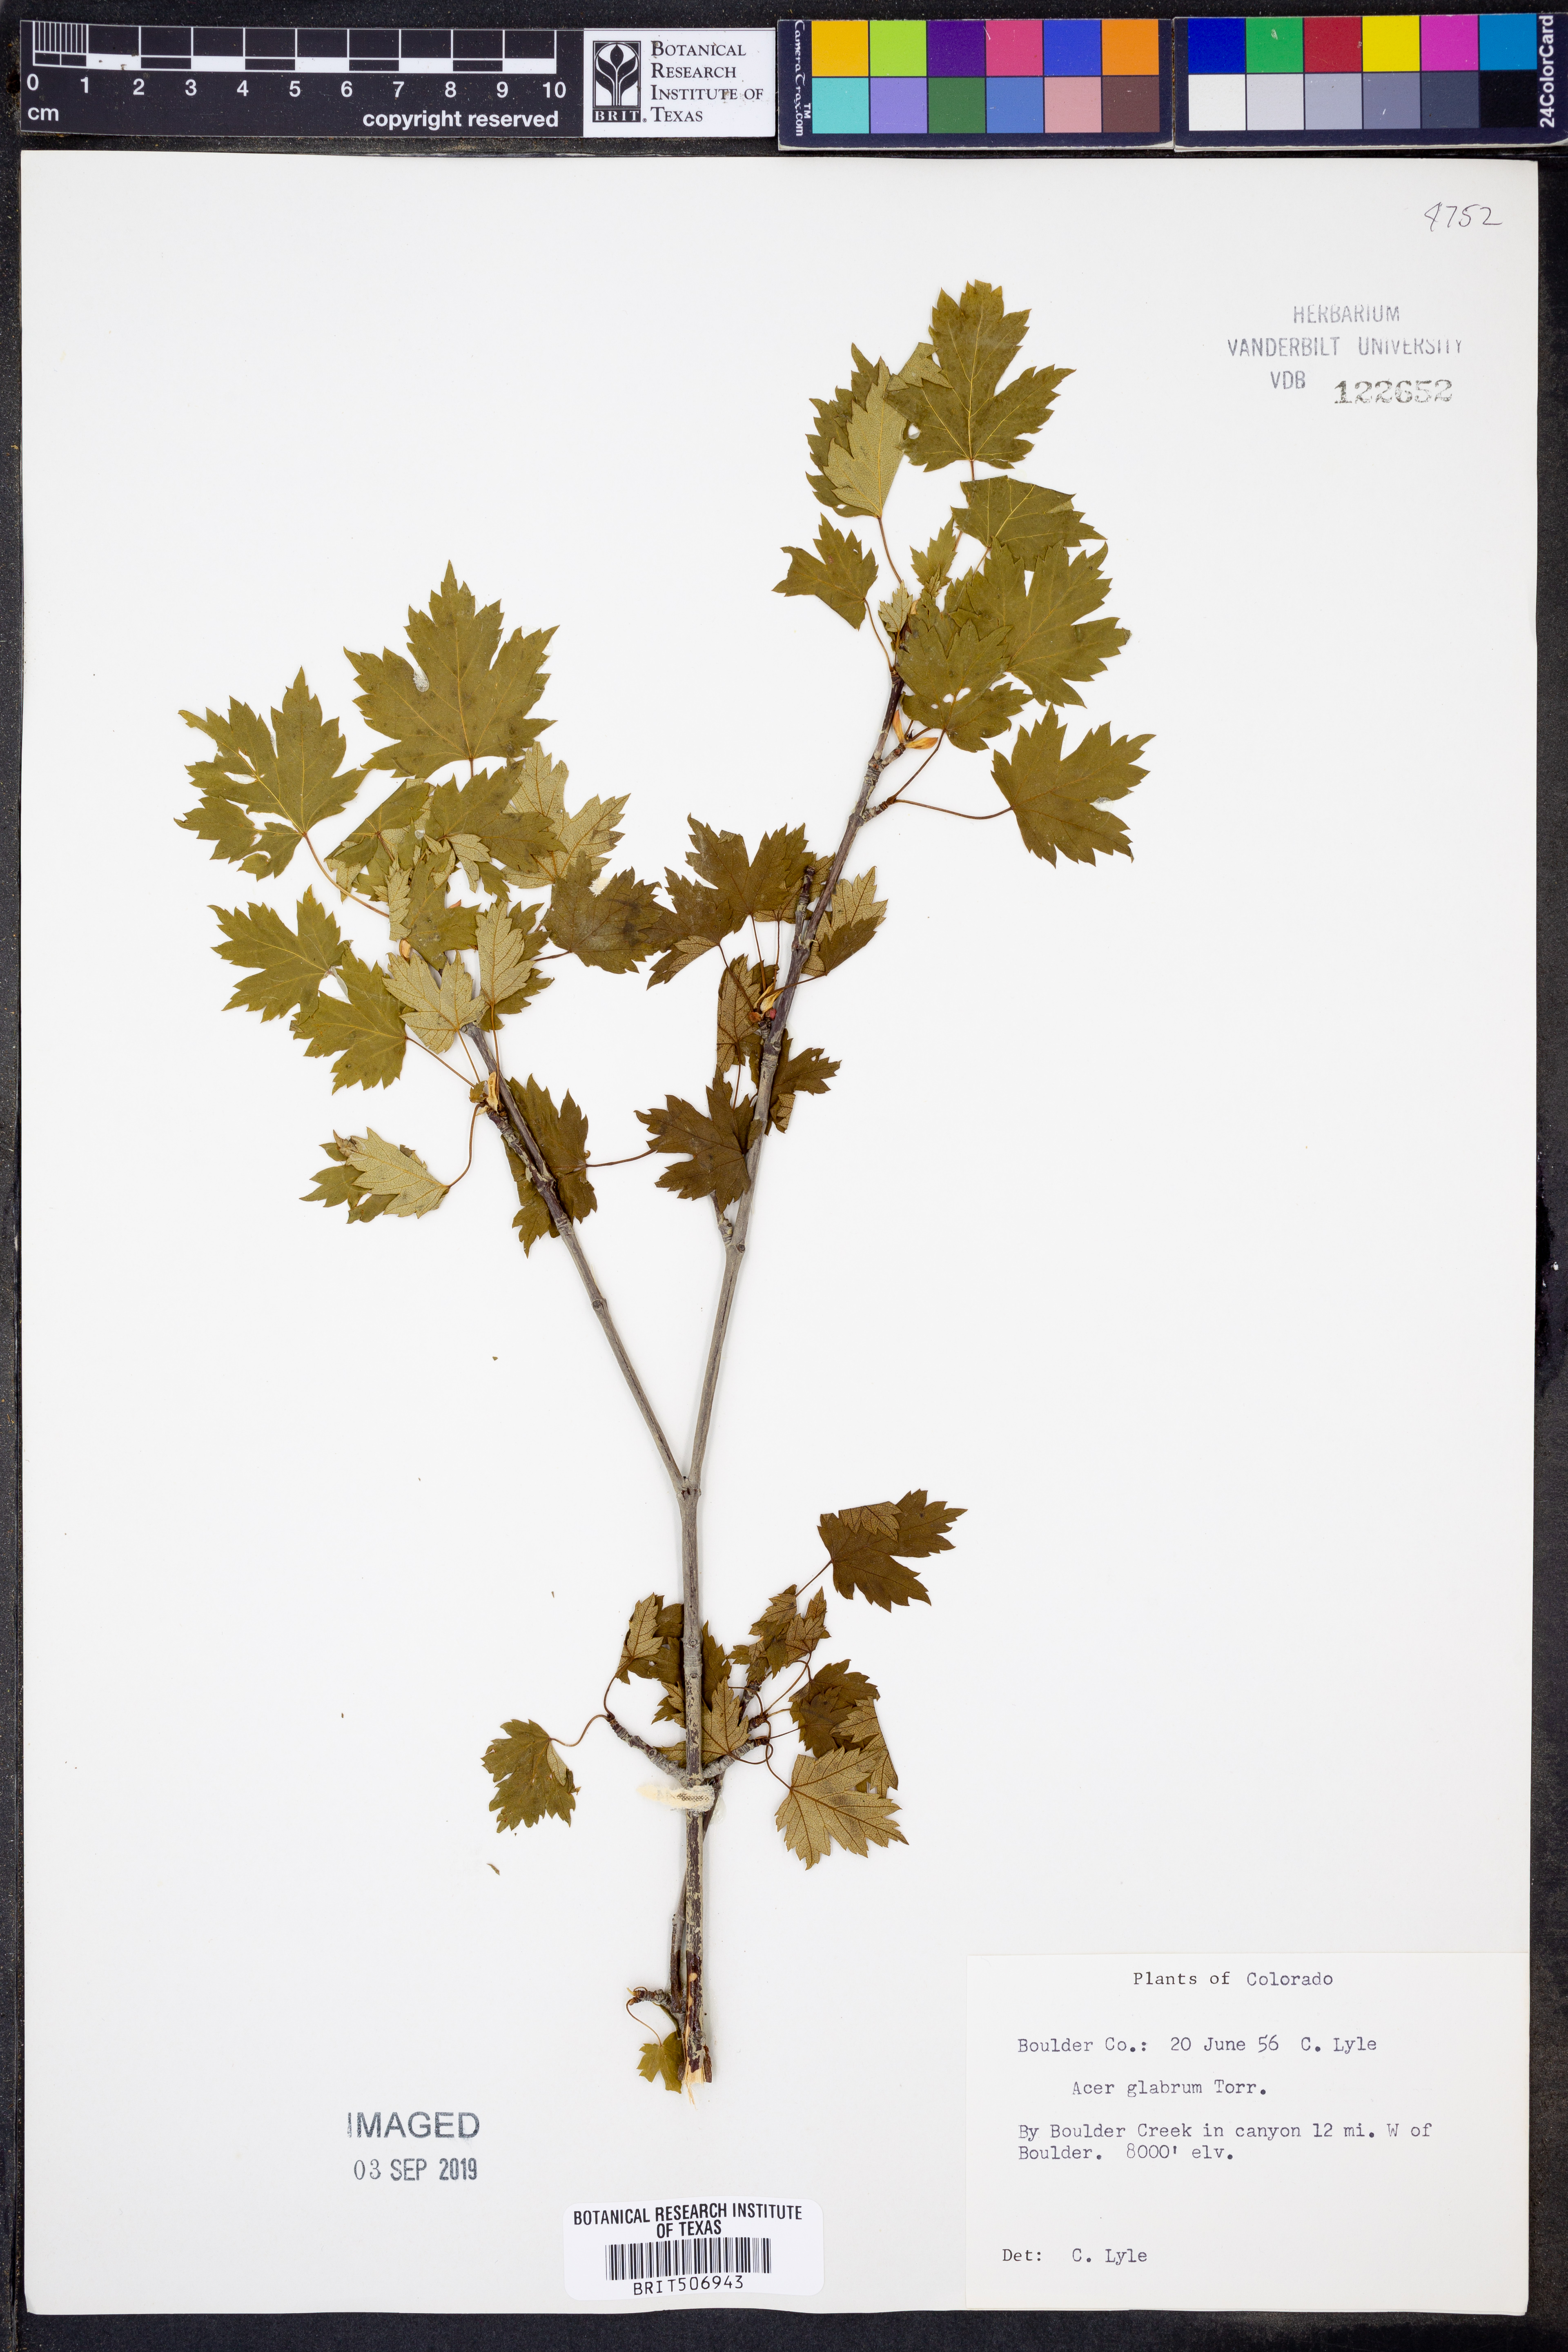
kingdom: Plantae
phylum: Tracheophyta
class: Magnoliopsida
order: Sapindales
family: Sapindaceae
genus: Acer
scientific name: Acer glabrum
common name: Rocky mountain maple
